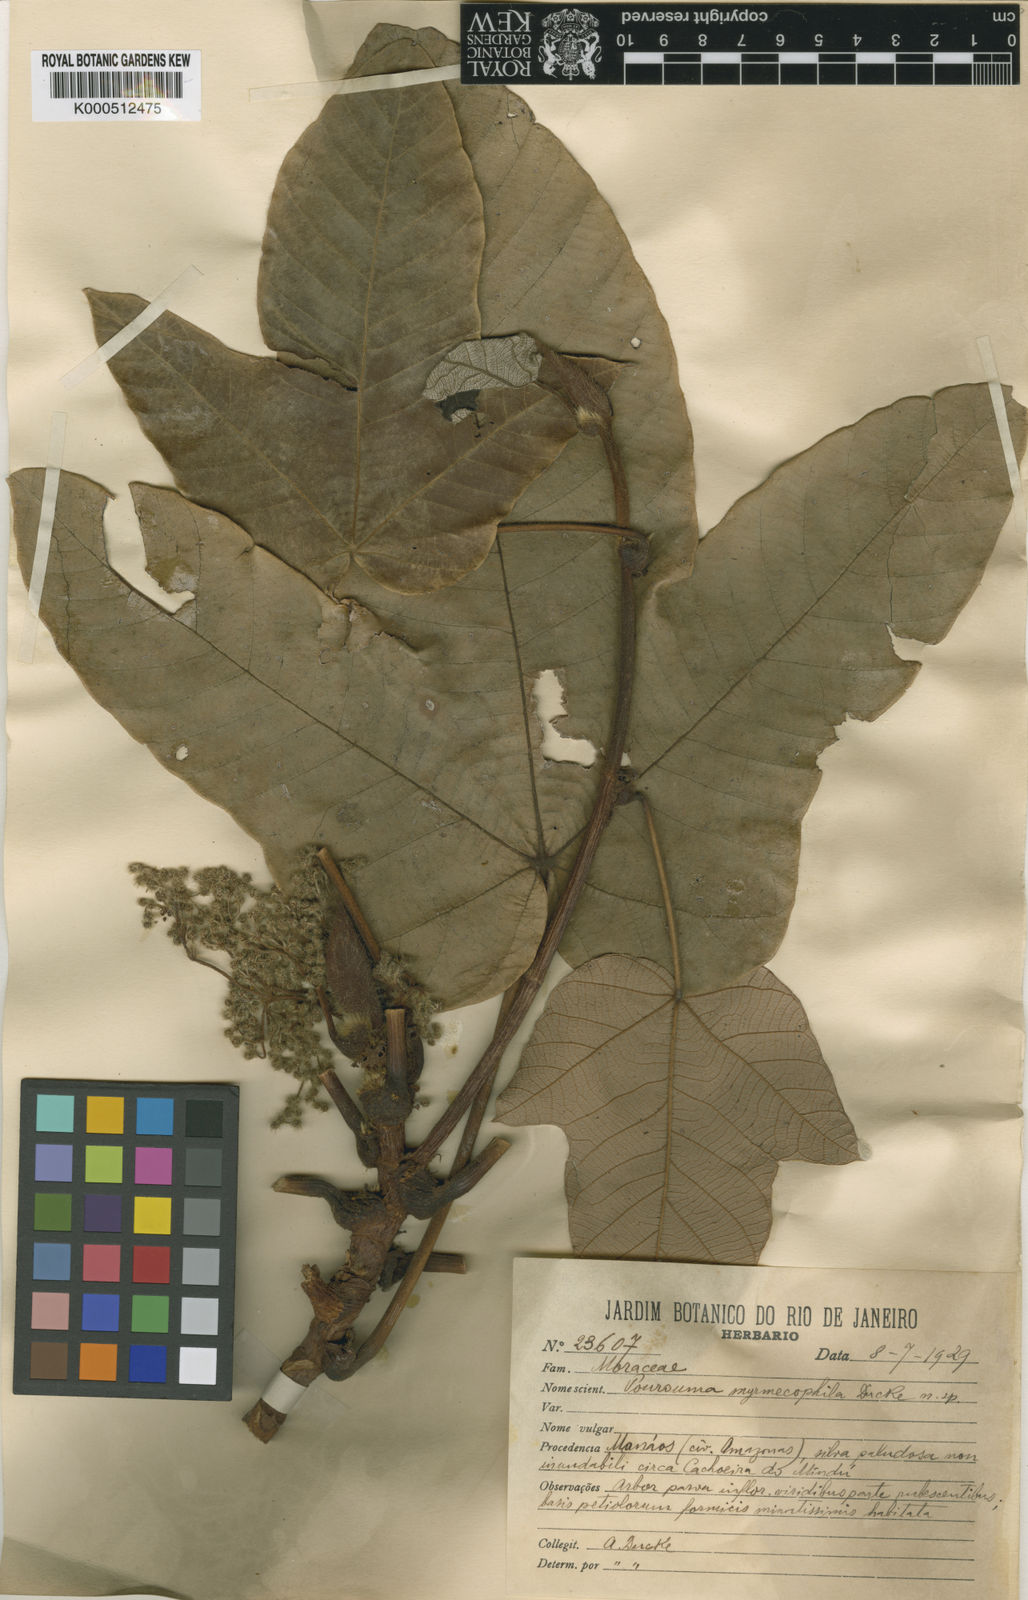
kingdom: Plantae
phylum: Tracheophyta
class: Magnoliopsida
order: Rosales
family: Urticaceae
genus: Pourouma
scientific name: Pourouma myrmecophila
